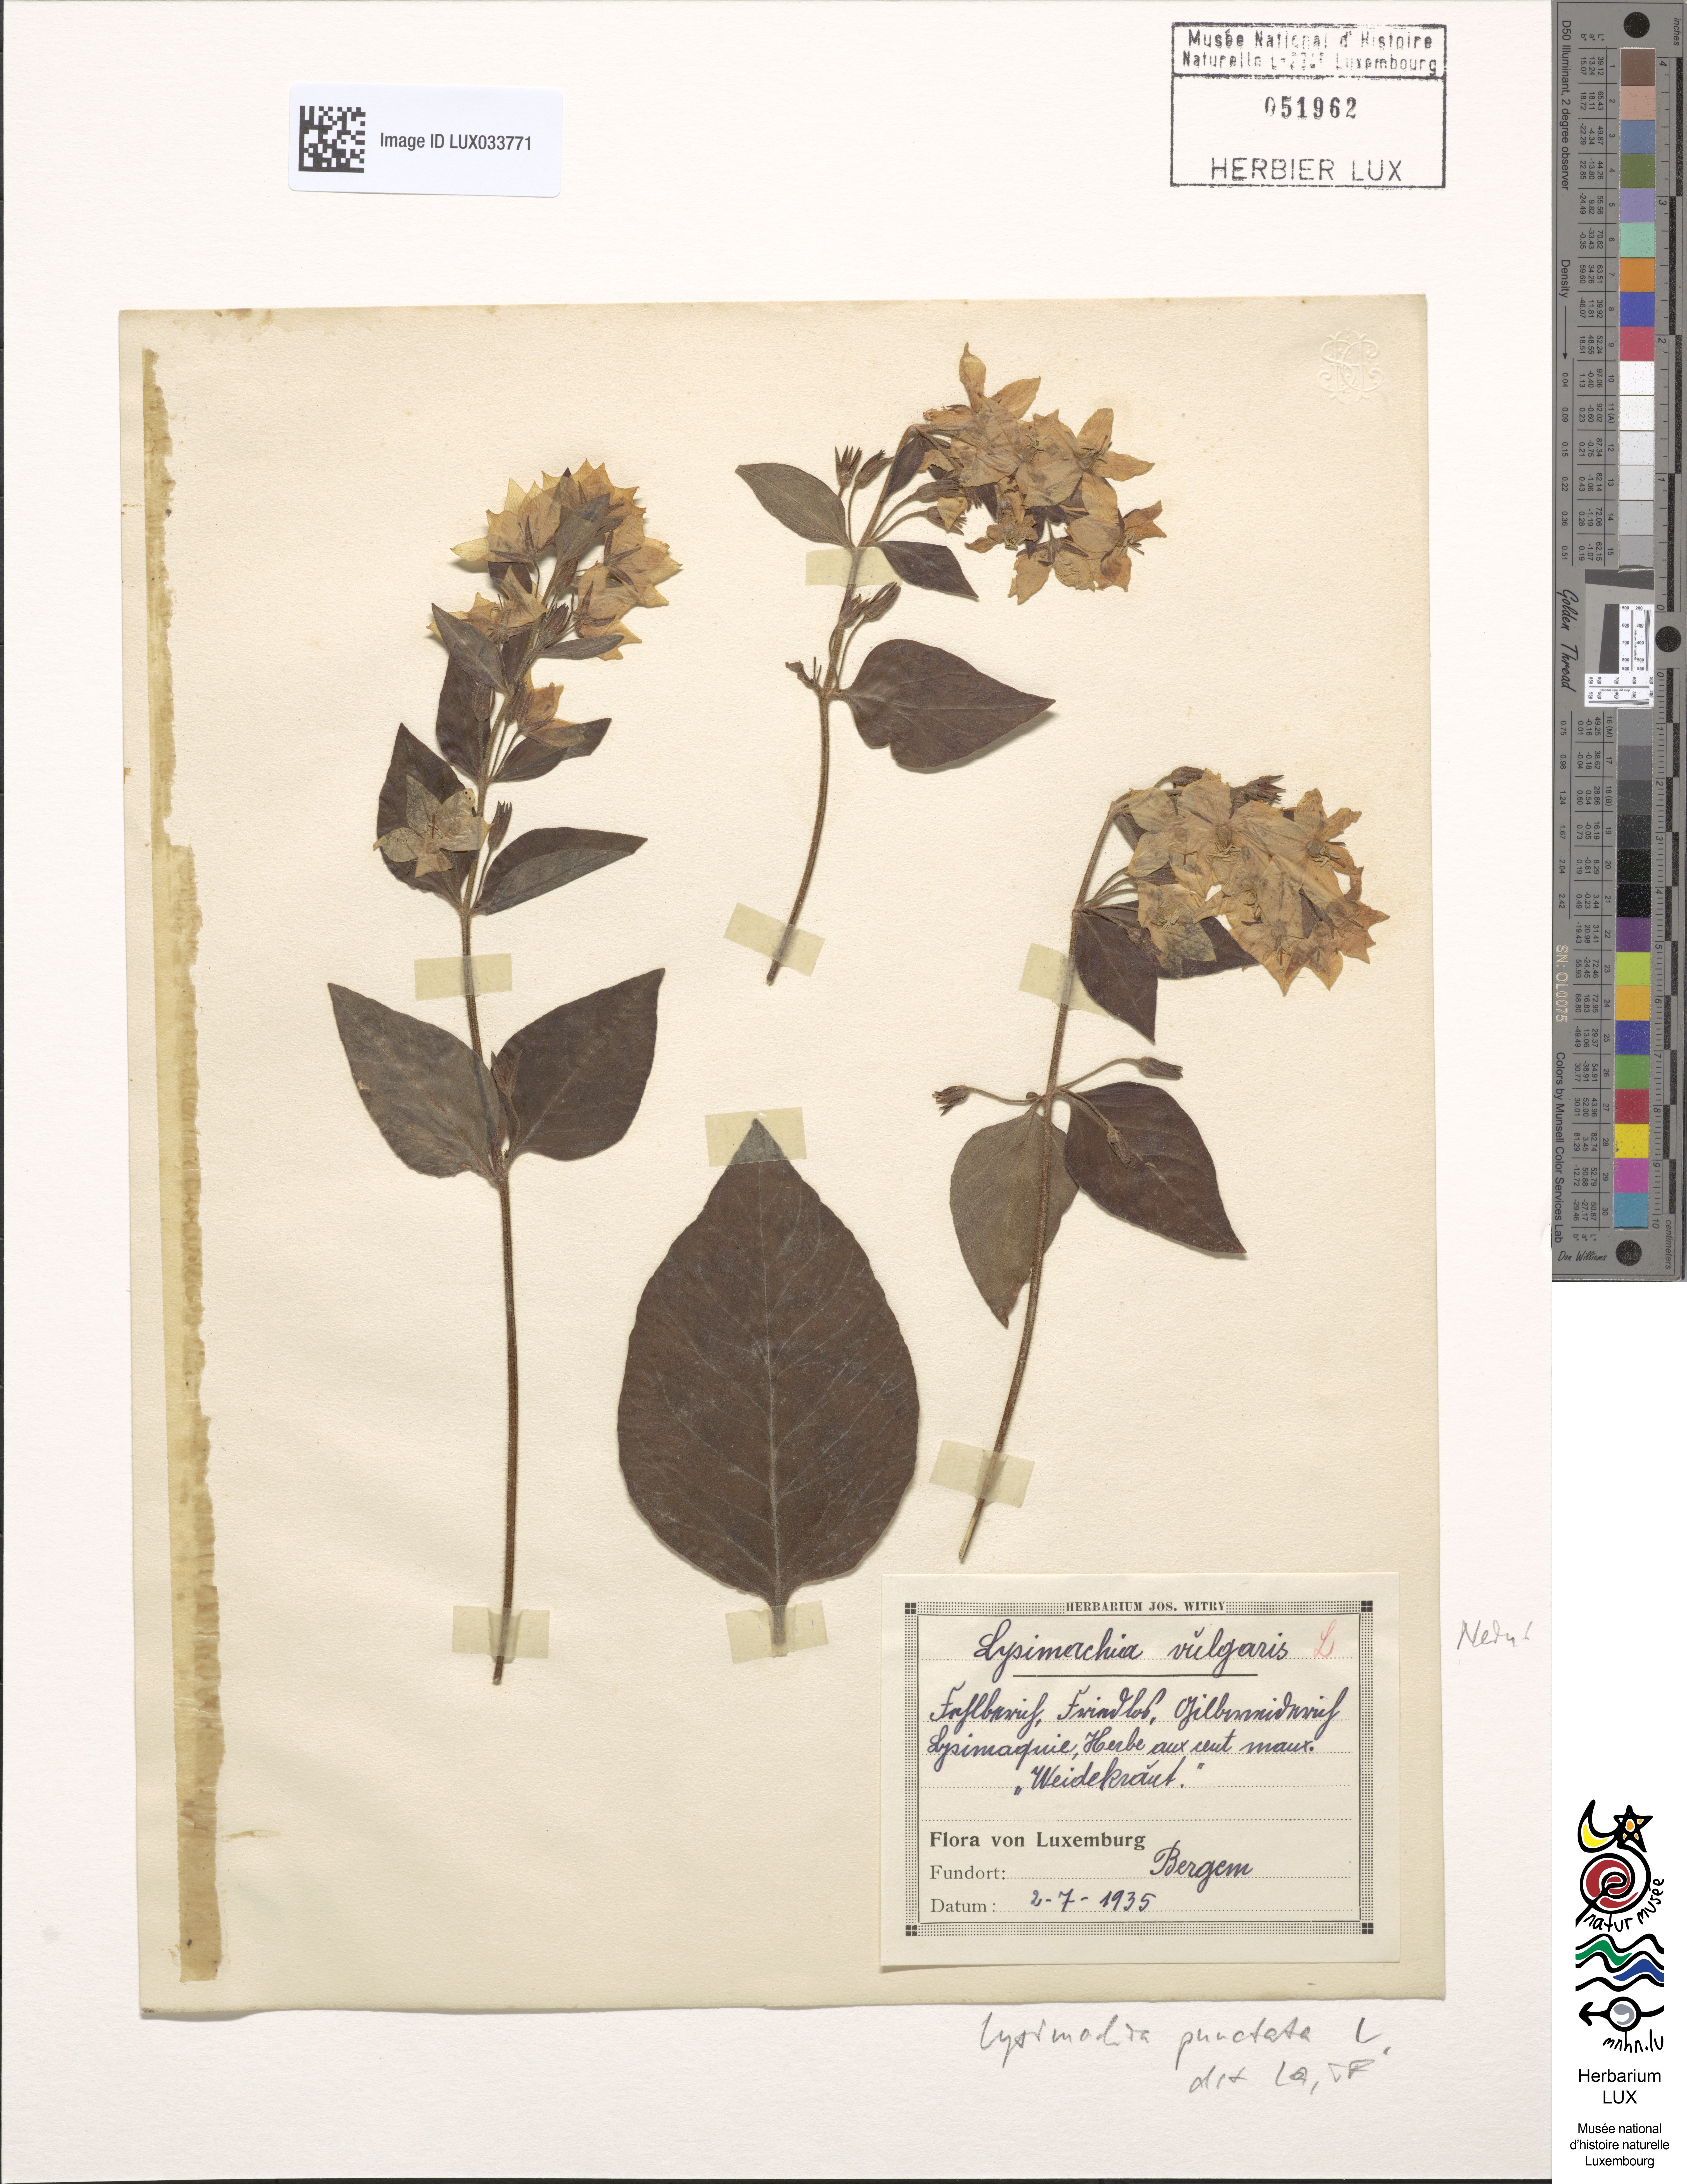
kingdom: Plantae
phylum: Tracheophyta
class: Magnoliopsida
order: Ericales
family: Primulaceae
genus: Lysimachia
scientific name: Lysimachia punctata
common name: Dotted loosestrife
